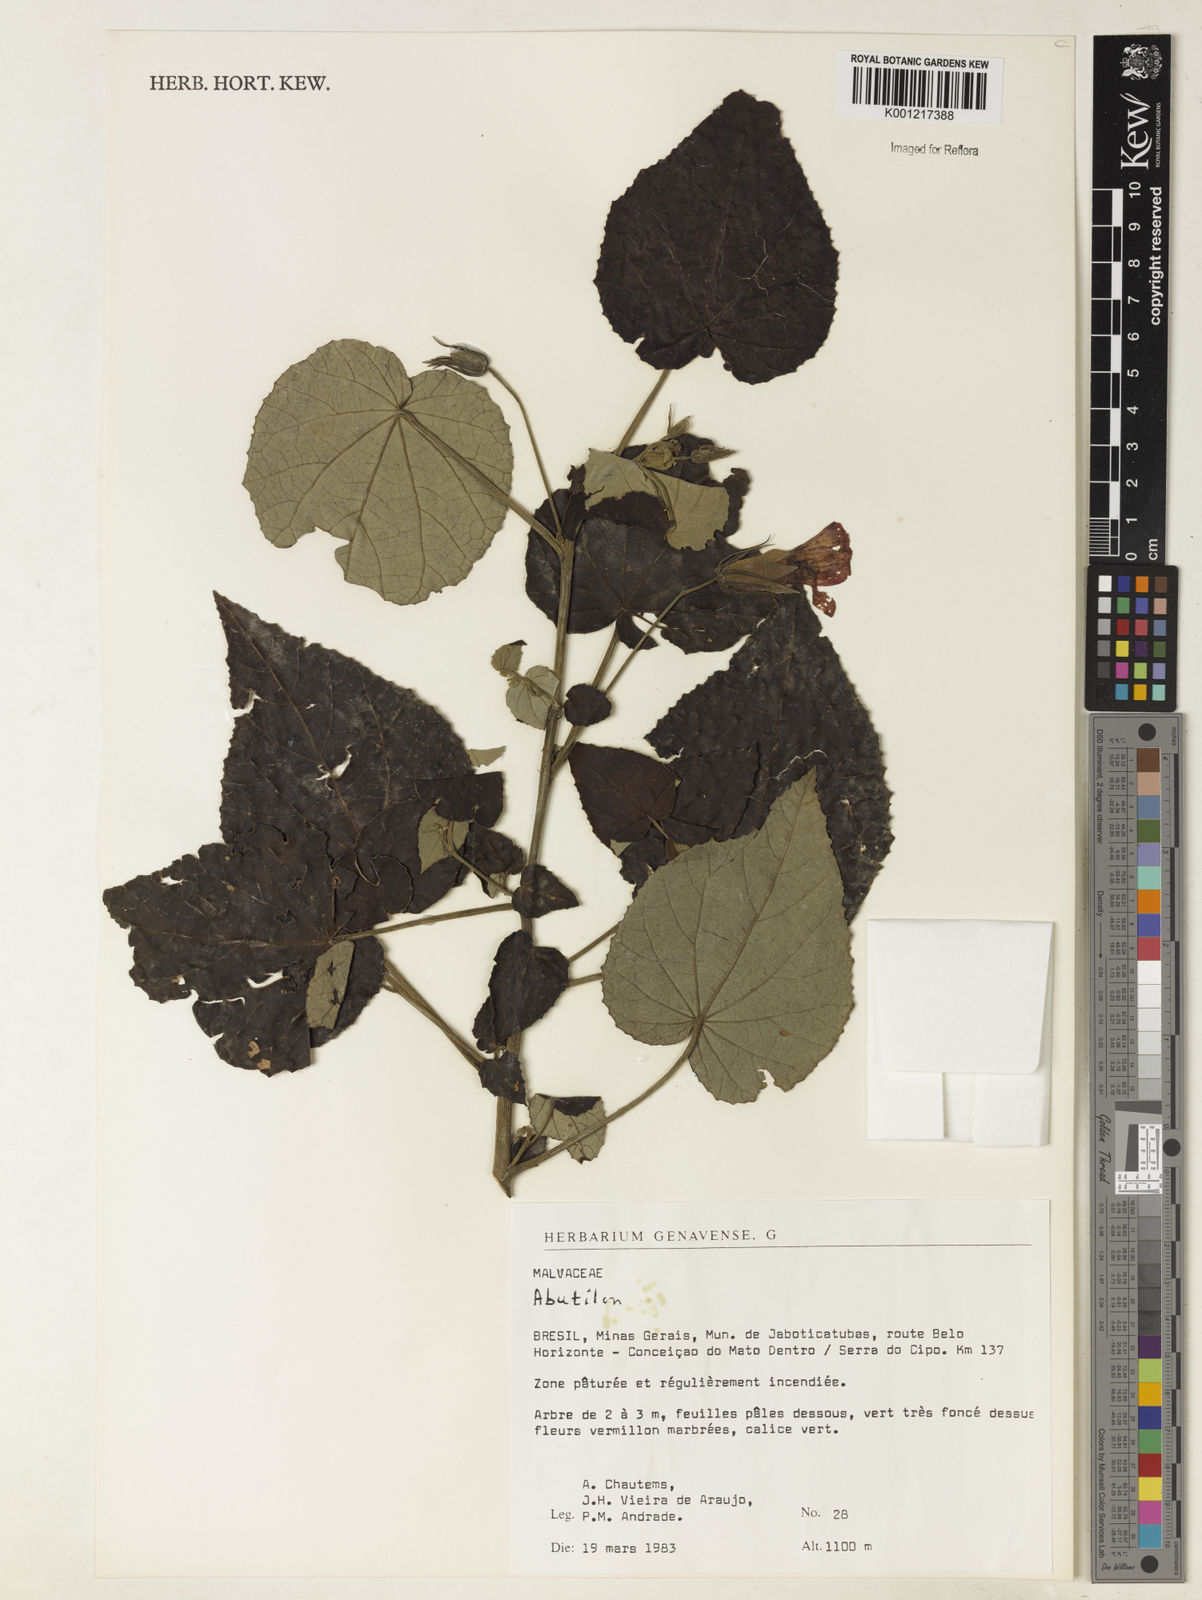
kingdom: Plantae
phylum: Tracheophyta
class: Magnoliopsida
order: Malvales
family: Malvaceae
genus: Abutilon
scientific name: Abutilon
